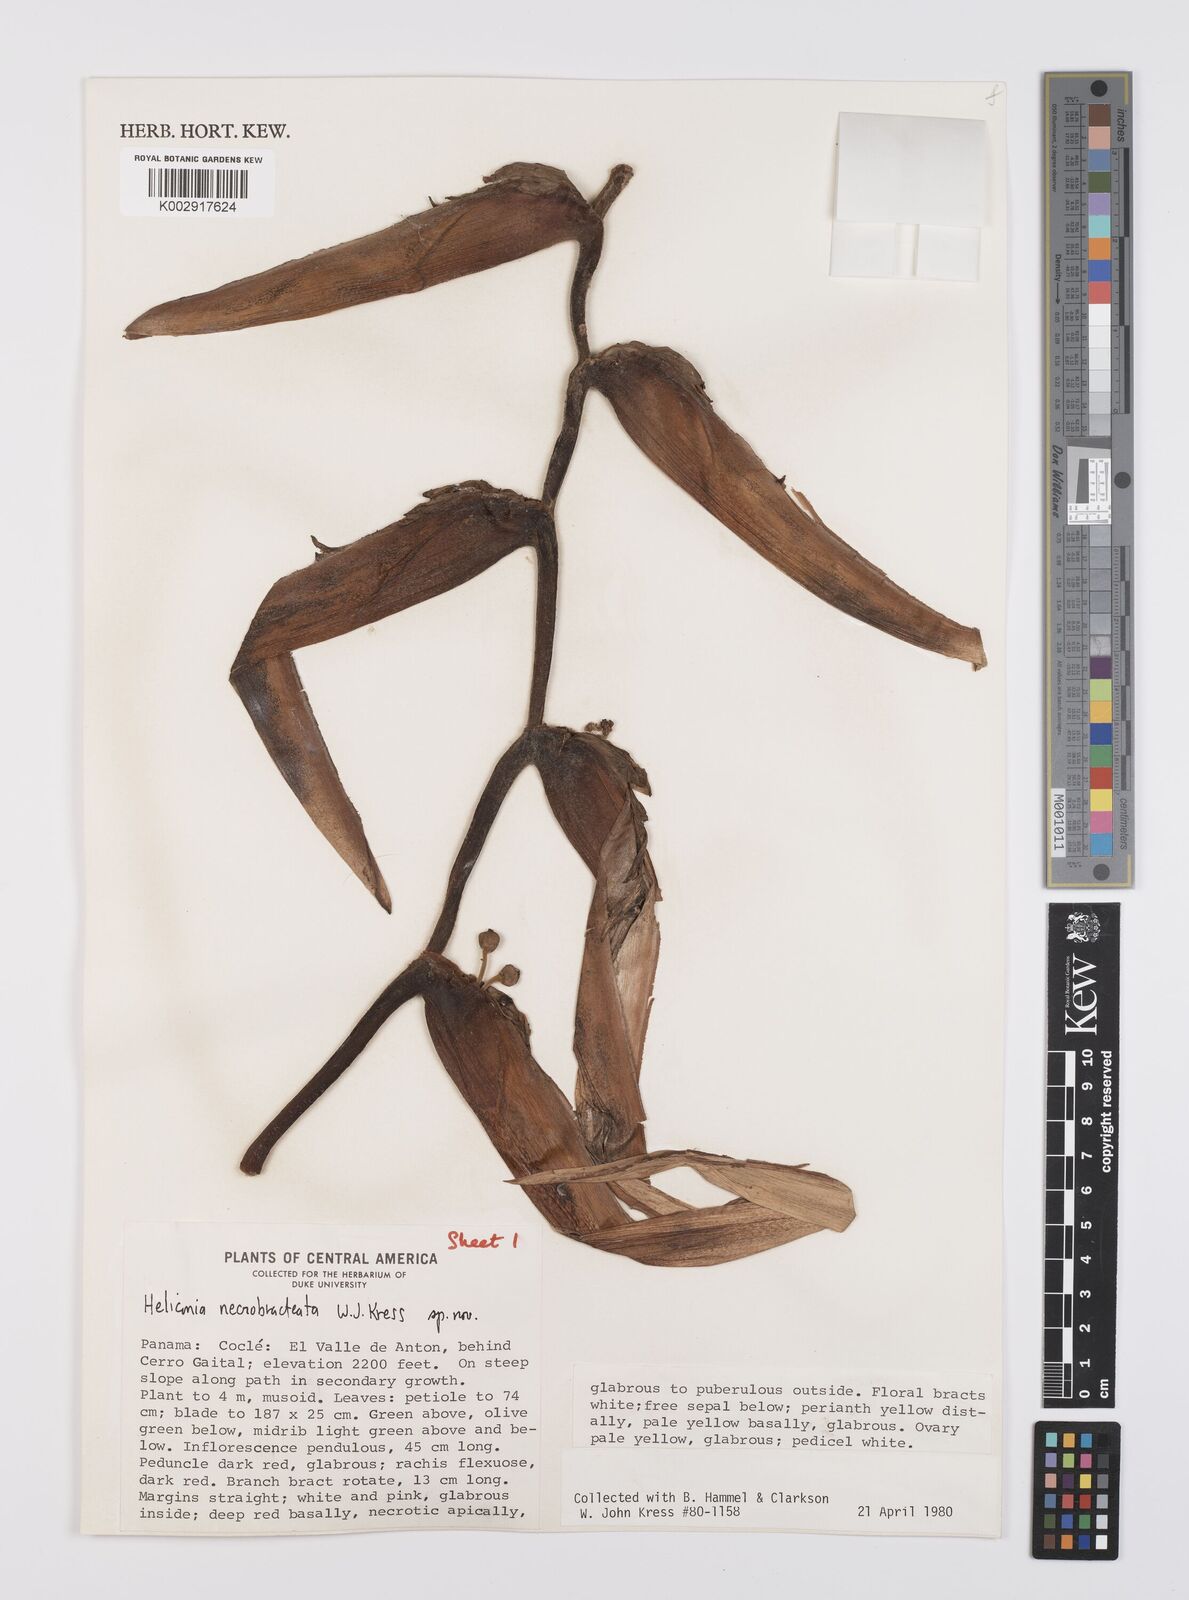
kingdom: Plantae
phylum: Tracheophyta
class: Liliopsida
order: Zingiberales
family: Heliconiaceae
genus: Heliconia
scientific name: Heliconia necrobracteata
